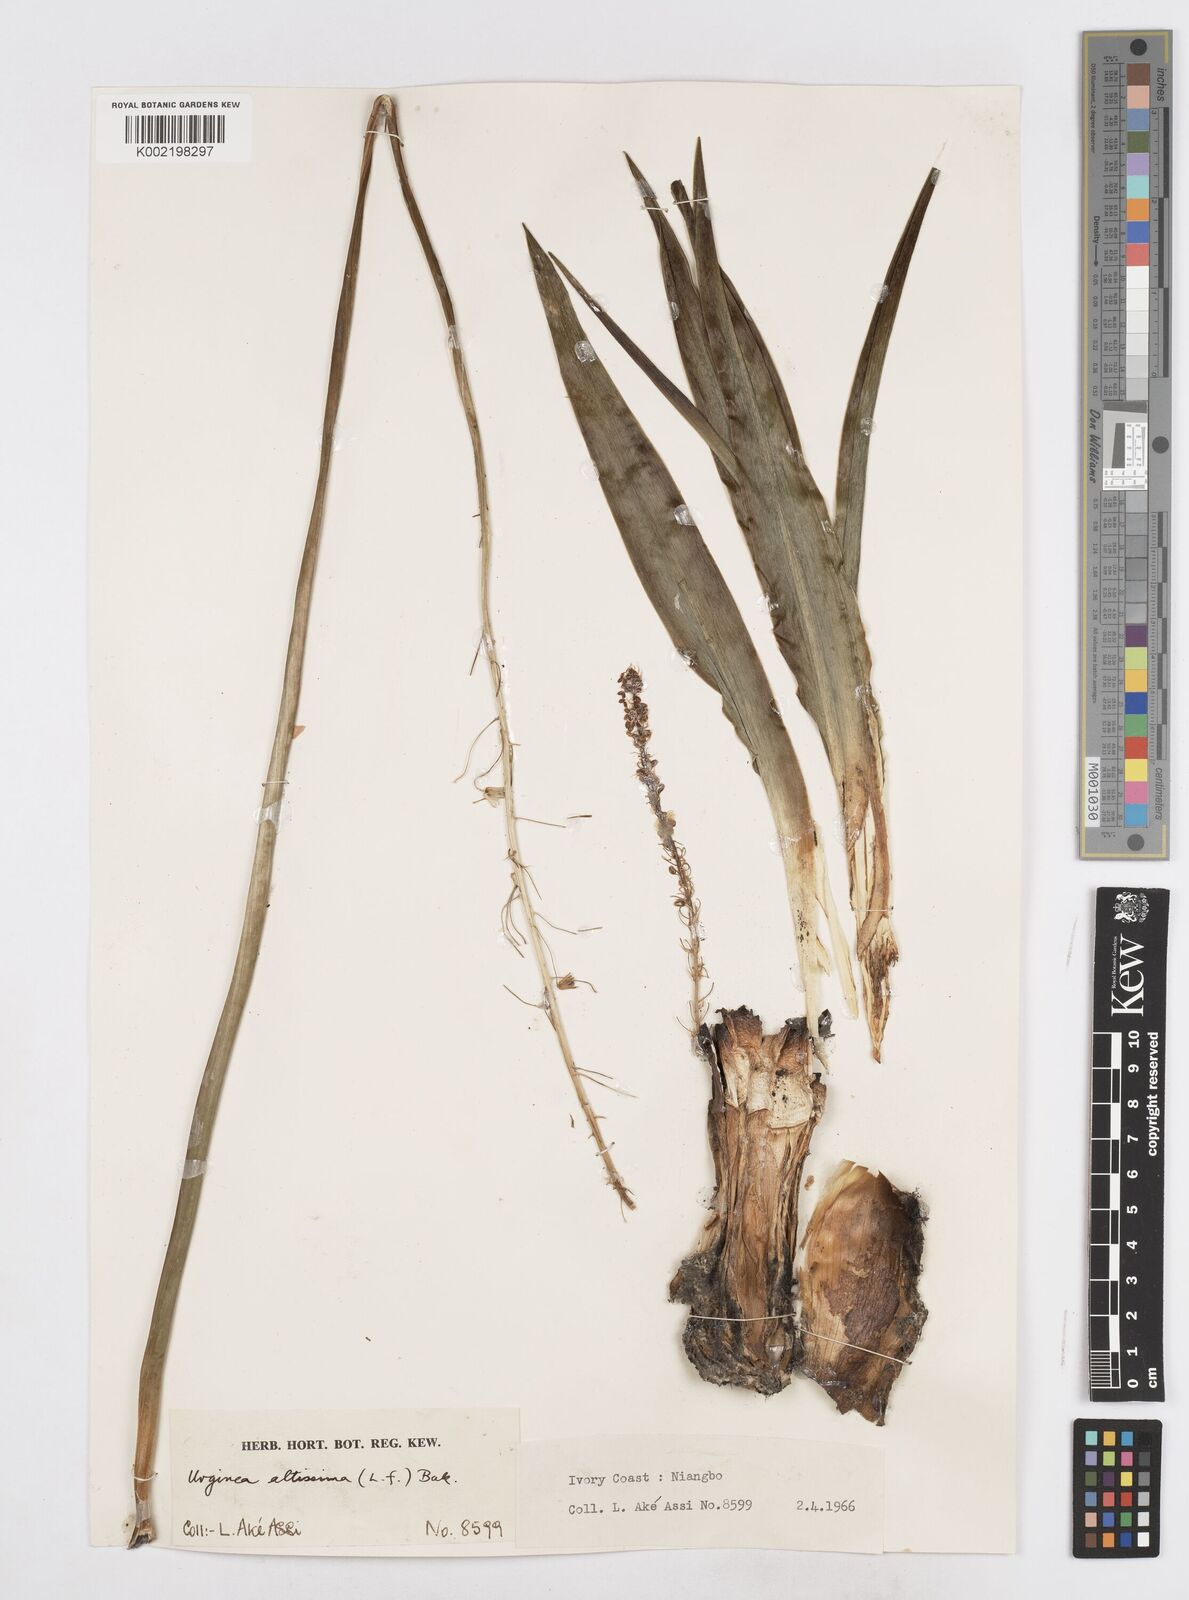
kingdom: Plantae
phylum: Tracheophyta
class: Liliopsida
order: Asparagales
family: Asparagaceae
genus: Drimia
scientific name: Drimia altissima
